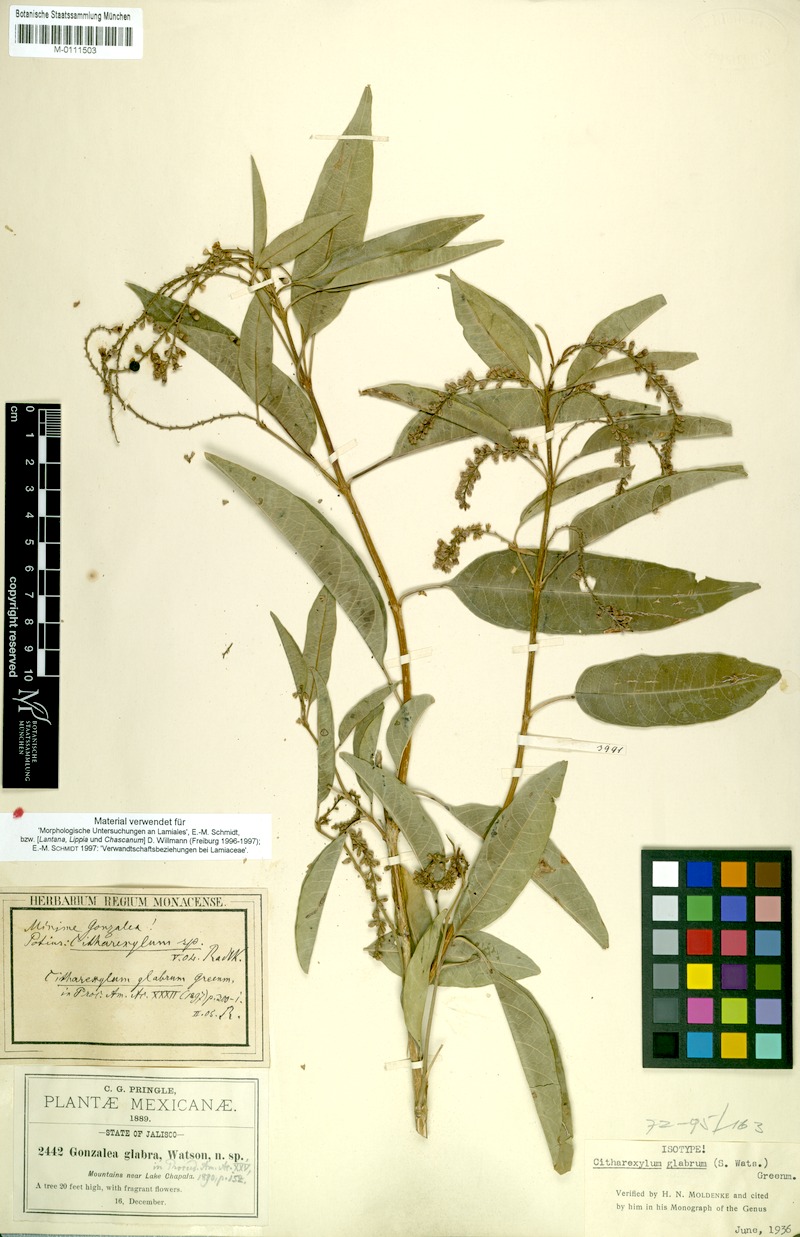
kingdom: Plantae
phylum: Tracheophyta
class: Magnoliopsida
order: Lamiales
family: Verbenaceae
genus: Citharexylum
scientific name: Citharexylum glabrum
